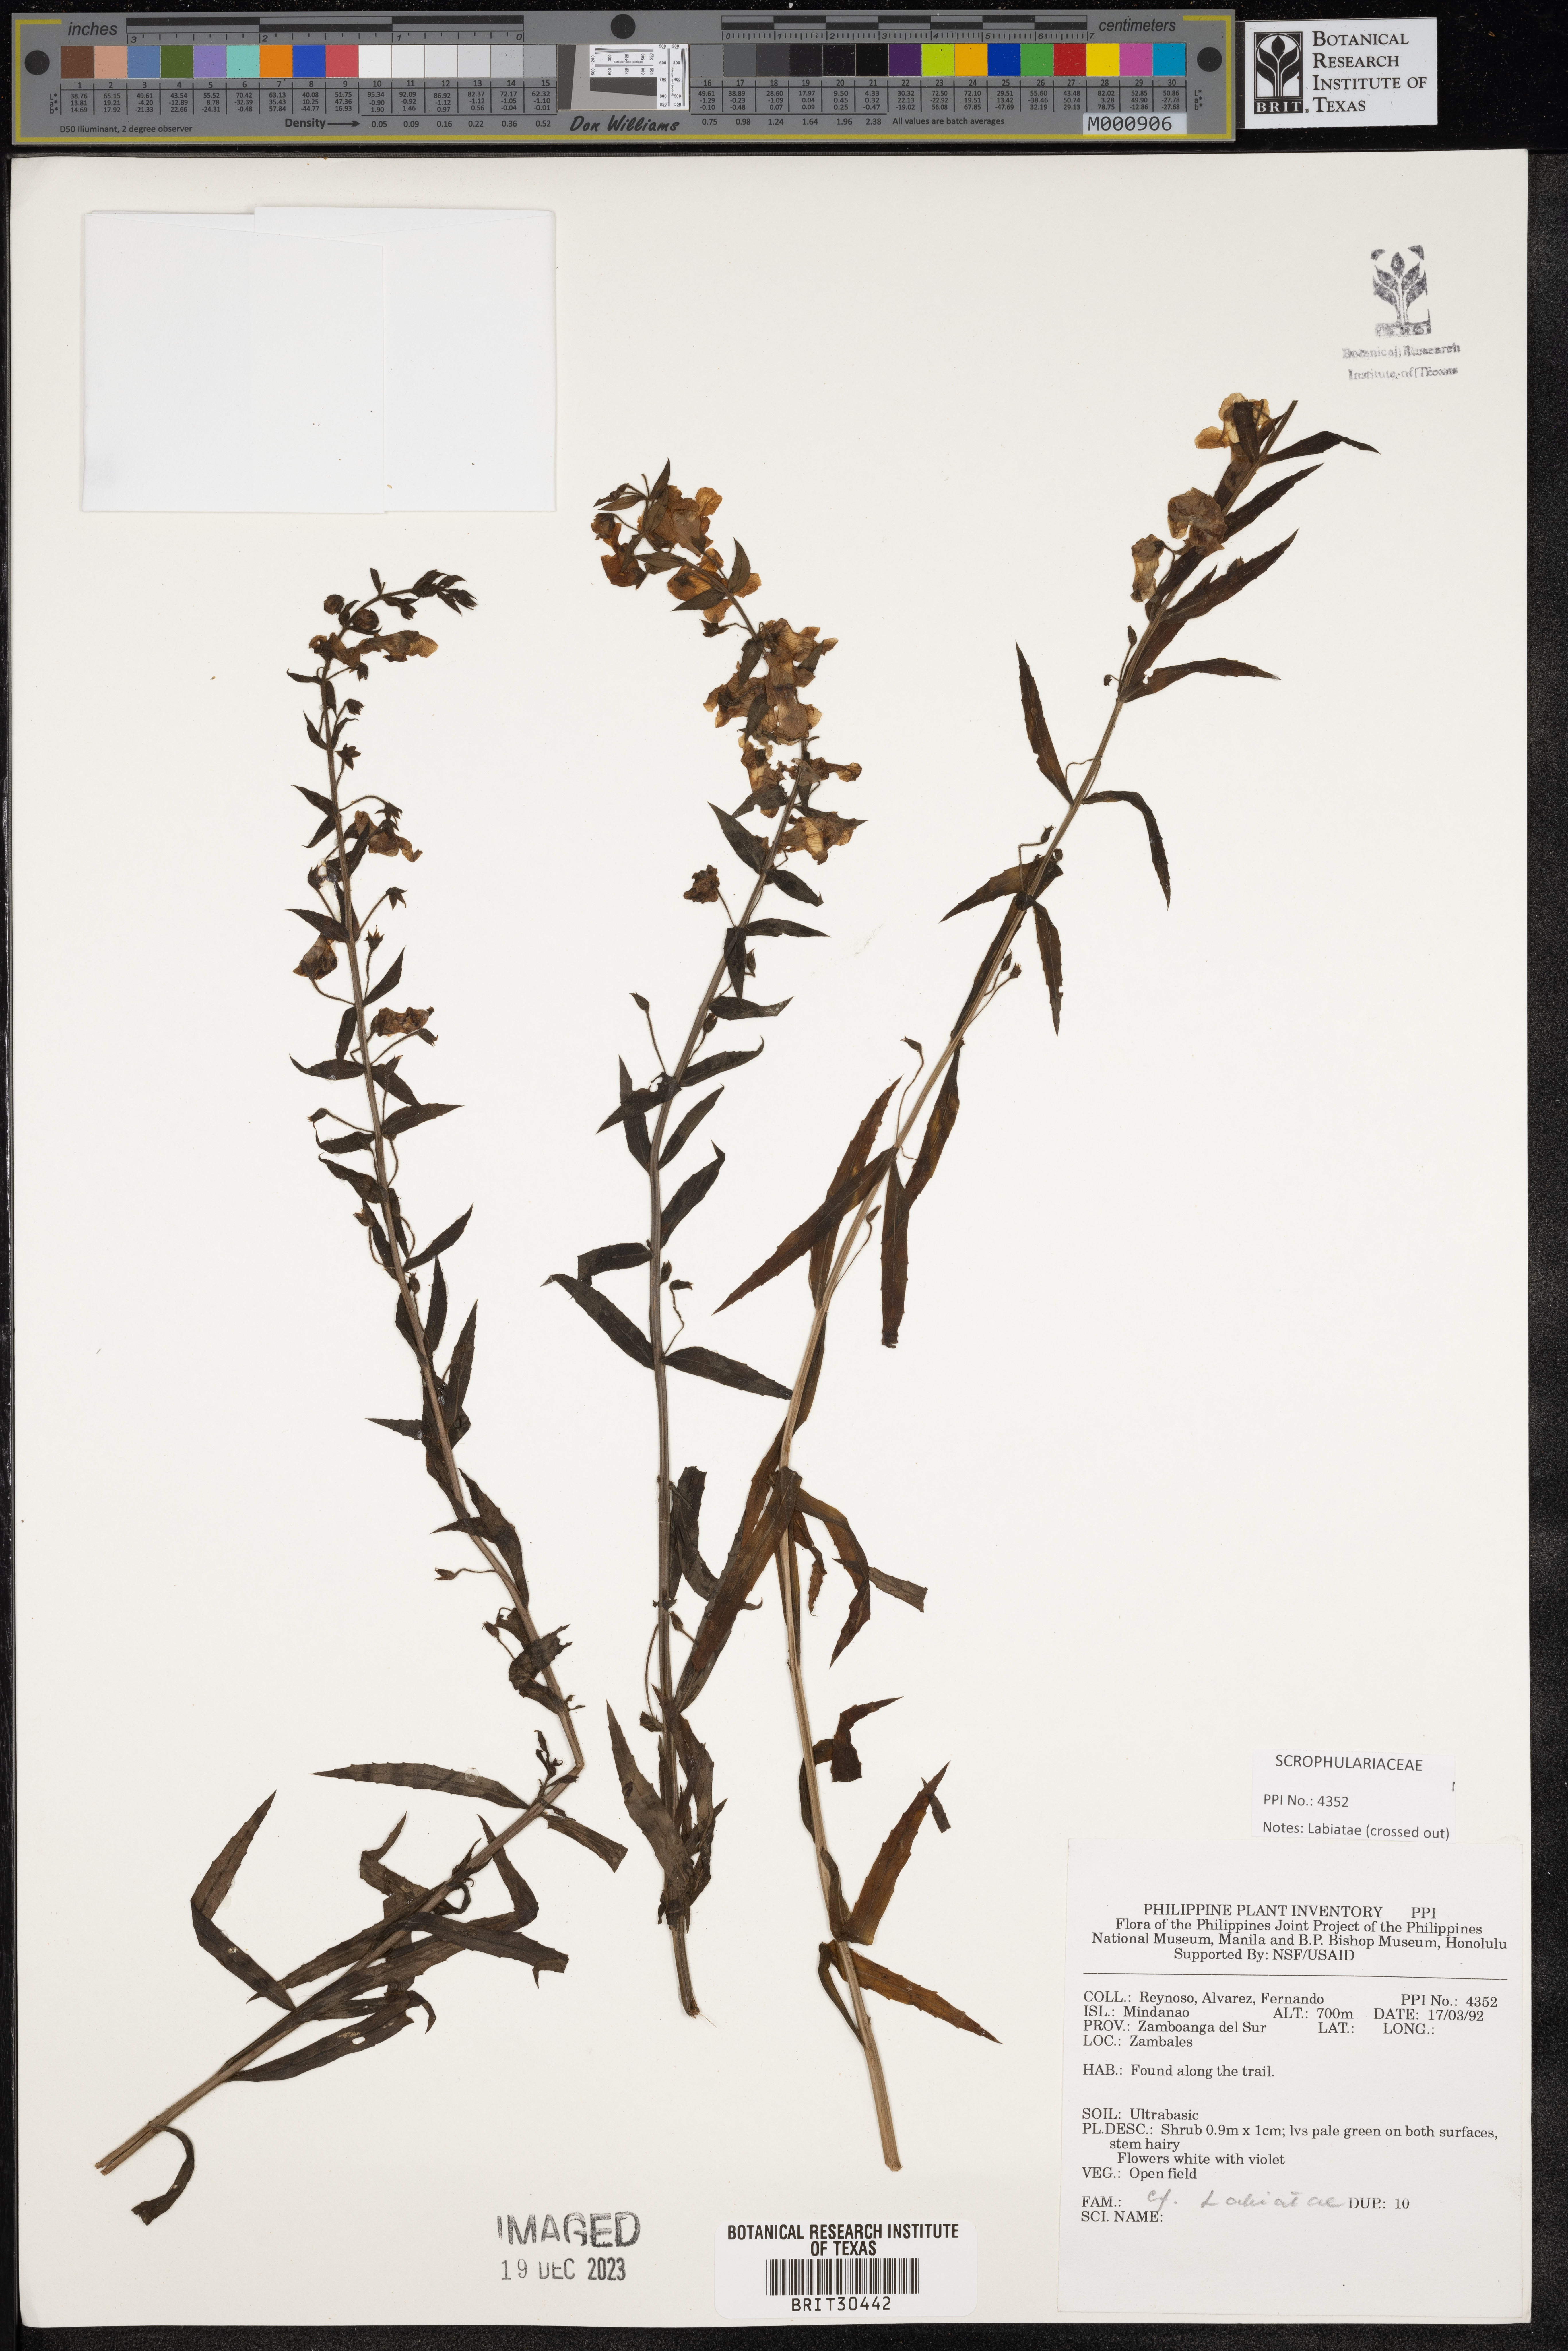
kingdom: Plantae
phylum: Tracheophyta
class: Magnoliopsida
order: Lamiales
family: Lamiaceae
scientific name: Lamiaceae
